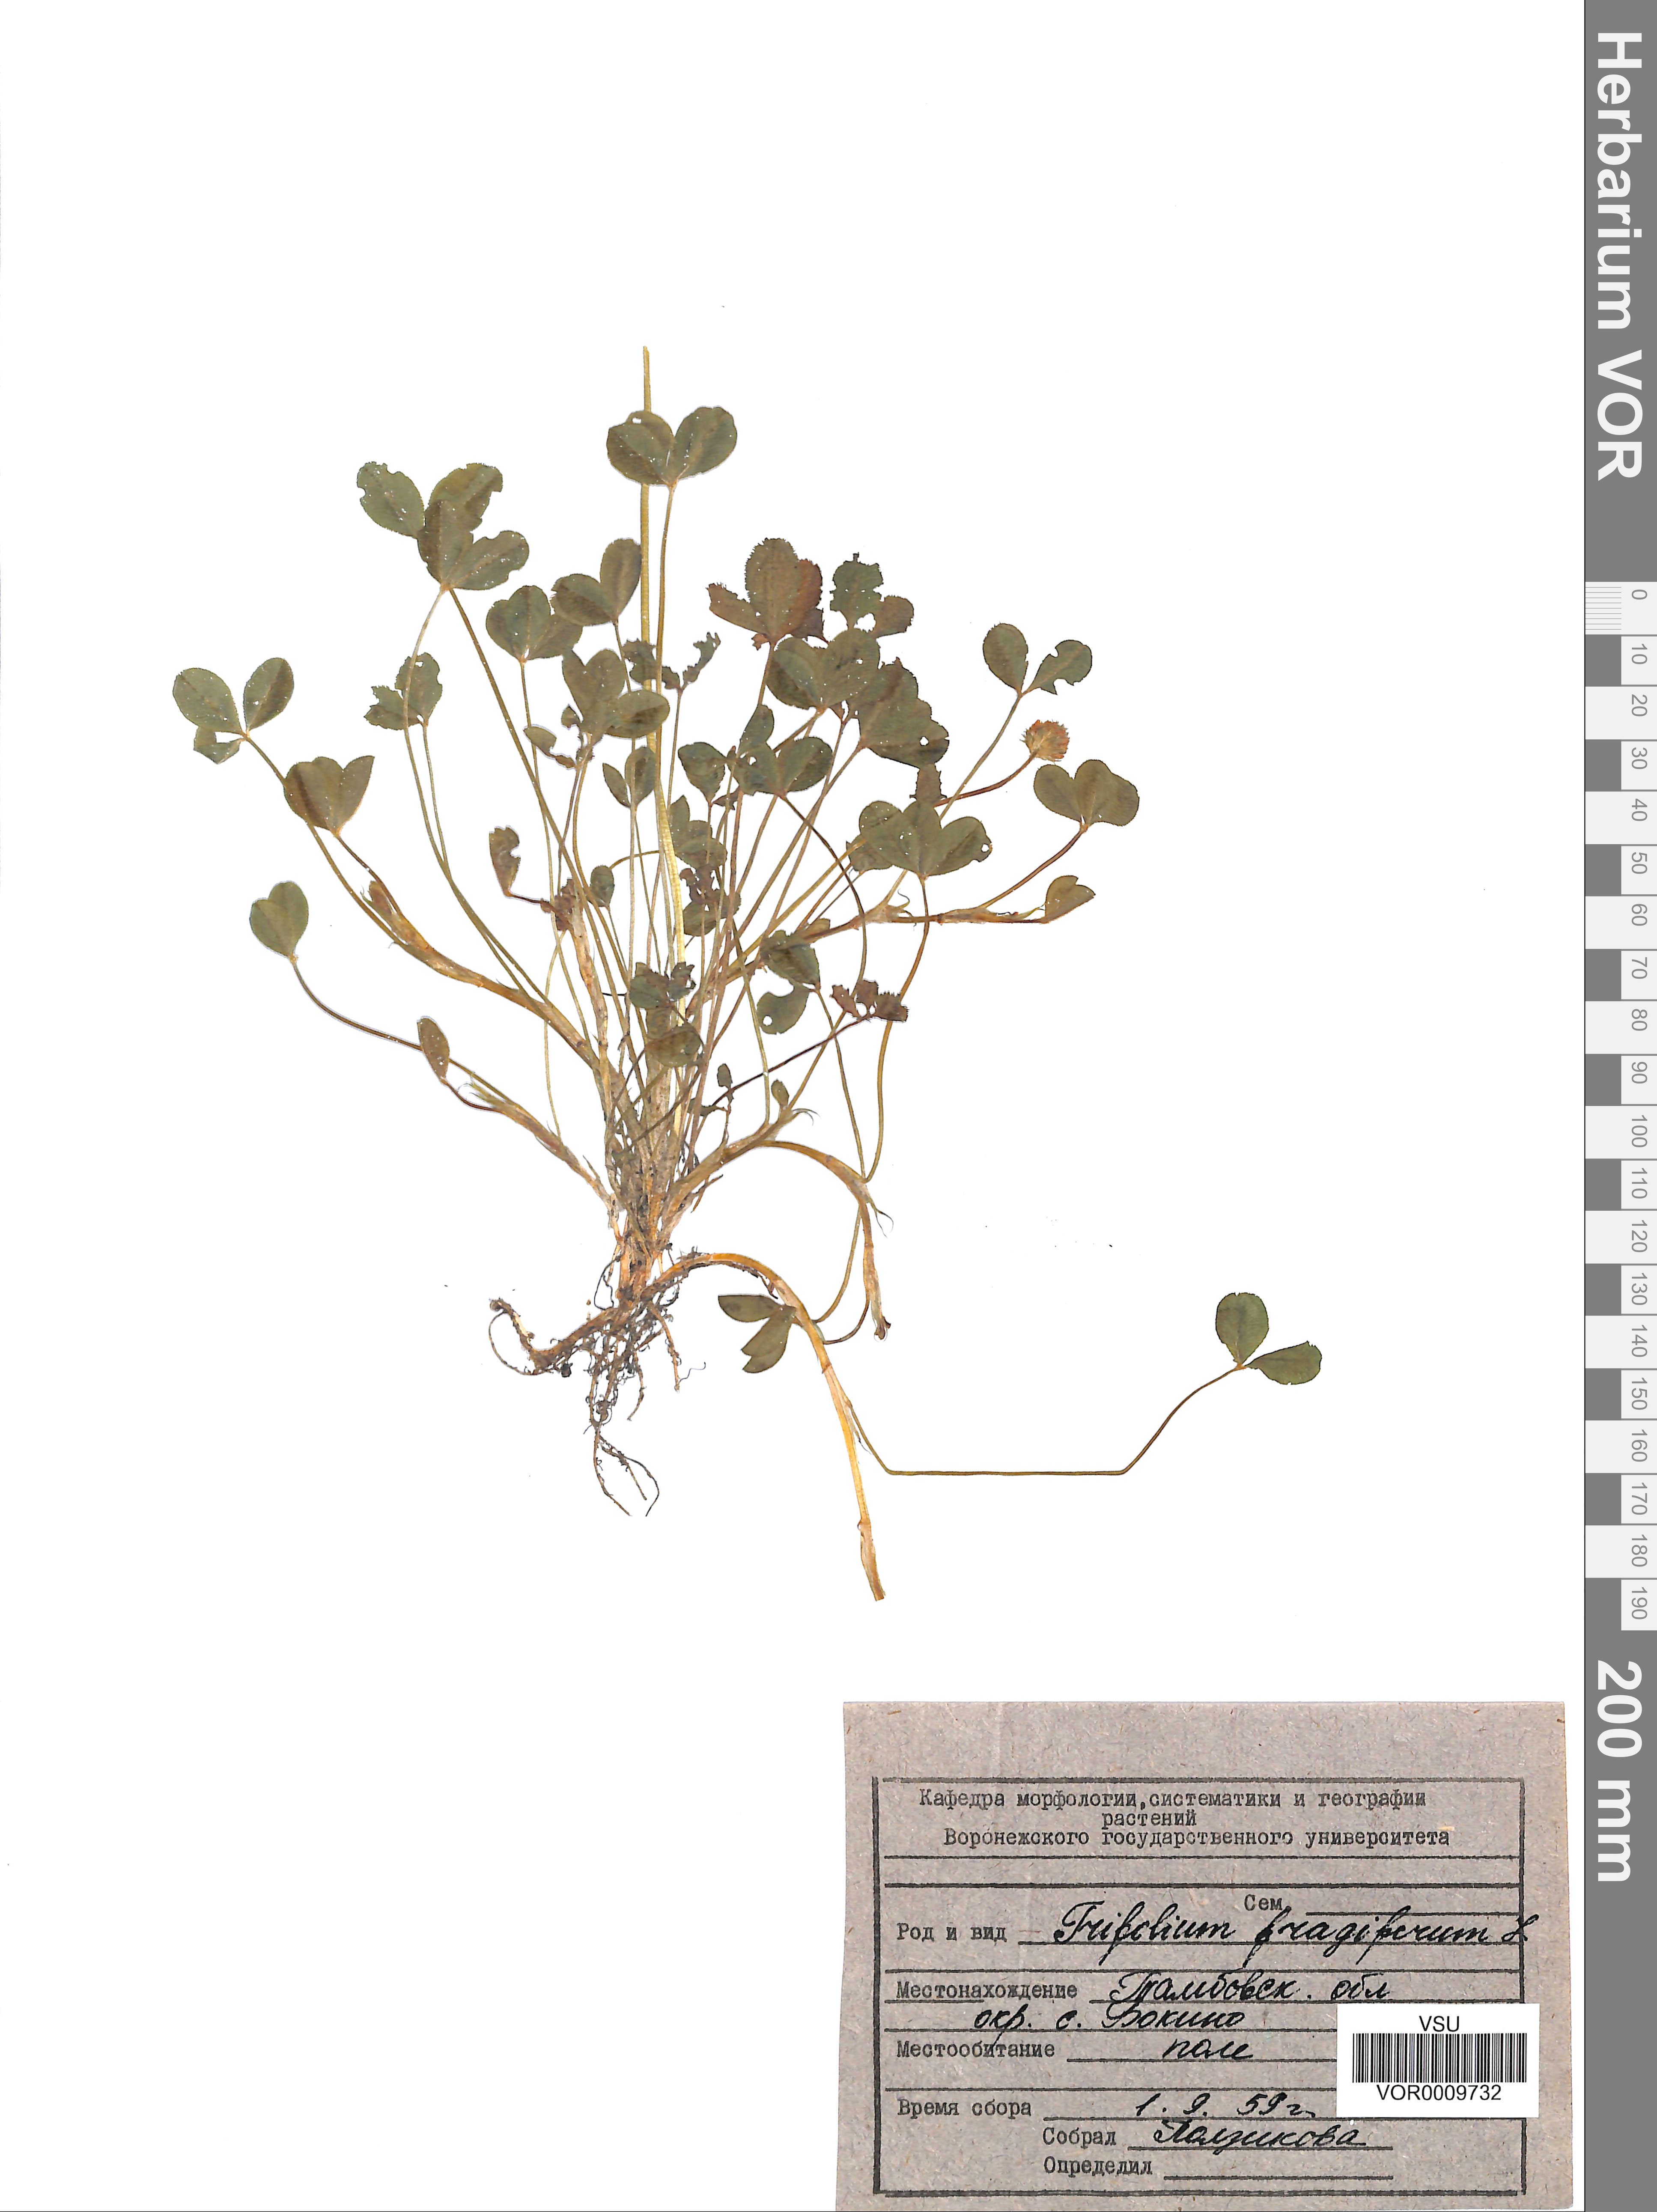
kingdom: Plantae
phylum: Tracheophyta
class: Magnoliopsida
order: Fabales
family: Fabaceae
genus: Trifolium
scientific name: Trifolium fragiferum
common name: Strawberry clover
